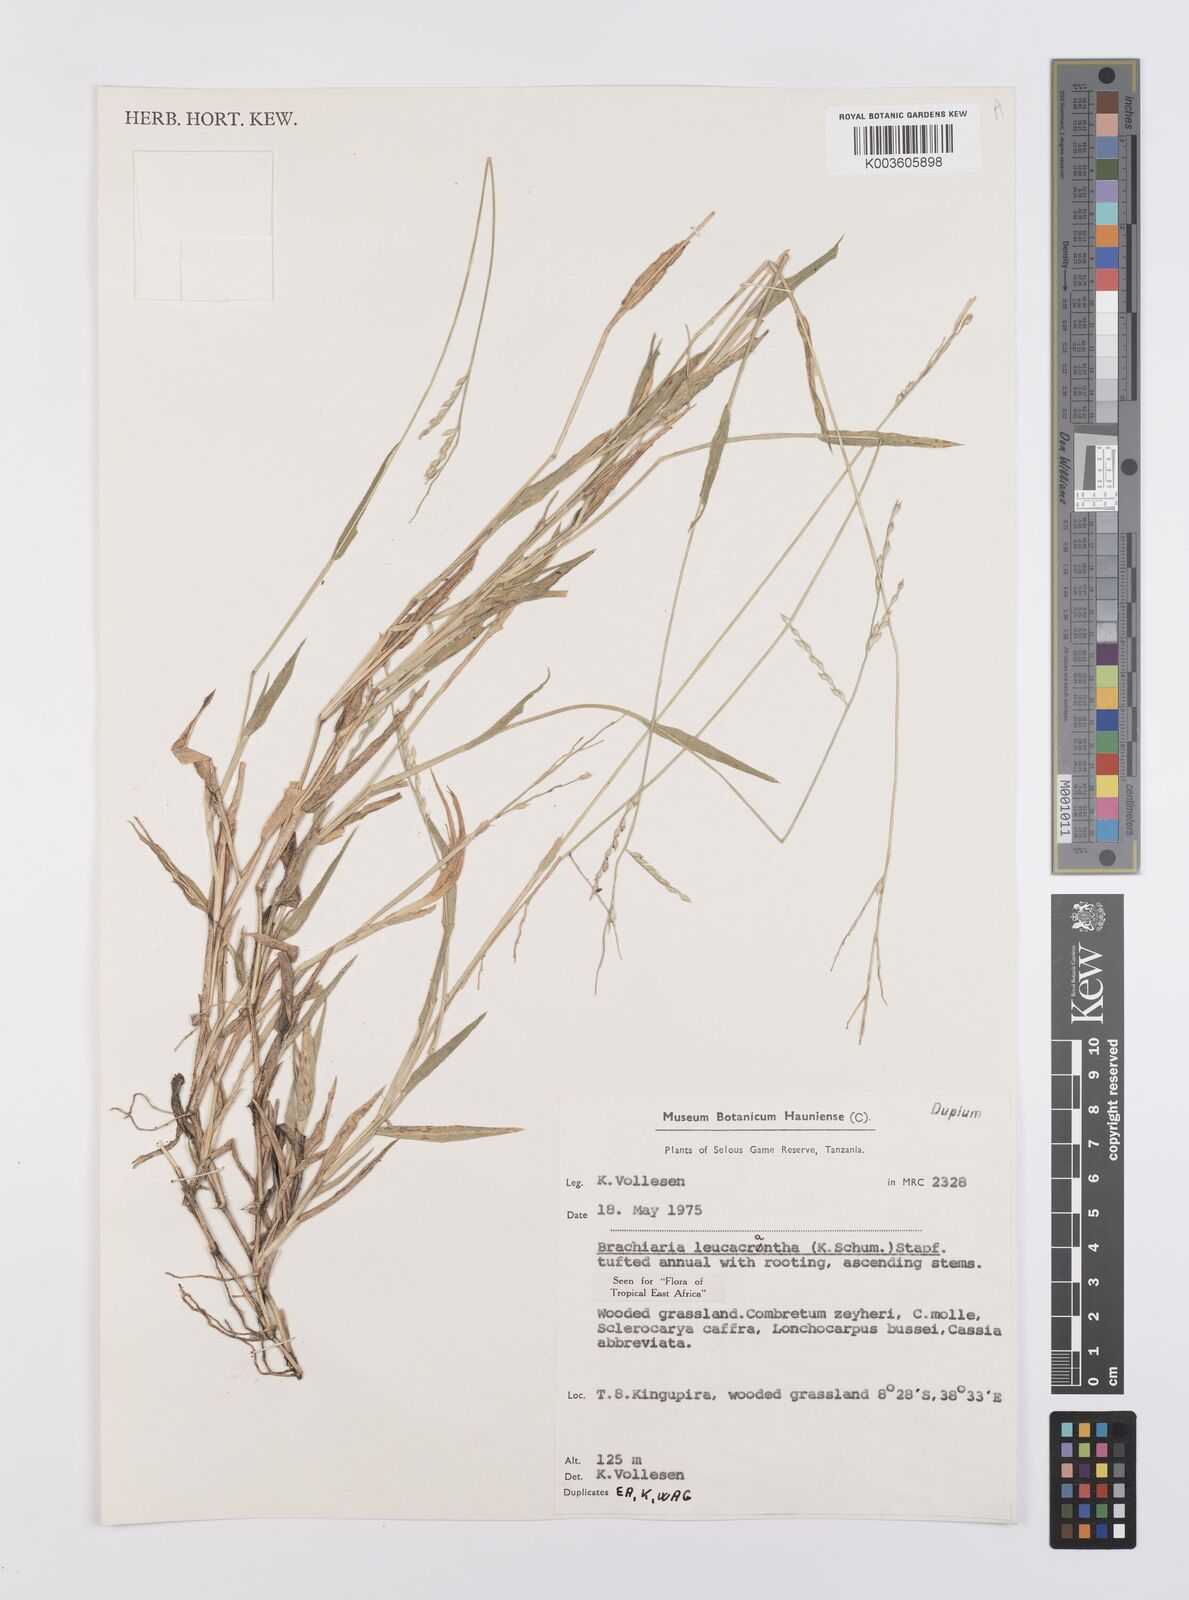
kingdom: Plantae
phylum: Tracheophyta
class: Liliopsida
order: Poales
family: Poaceae
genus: Urochloa
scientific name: Urochloa xantholeuca
